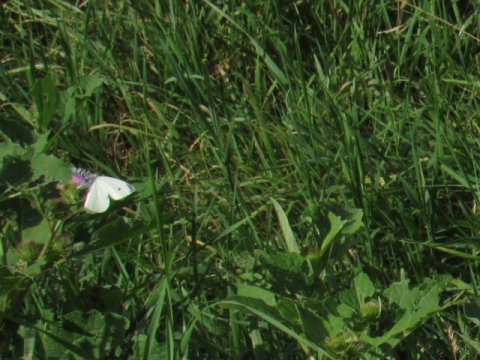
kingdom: Animalia
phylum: Arthropoda
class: Insecta
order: Lepidoptera
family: Pieridae
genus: Pieris
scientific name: Pieris rapae
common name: Cabbage White
